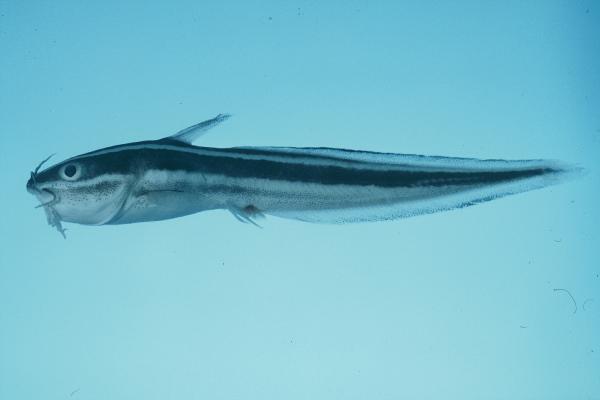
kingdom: Animalia
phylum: Chordata
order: Siluriformes
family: Plotosidae
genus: Plotosus
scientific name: Plotosus lineatus
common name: Striped eel catfish
